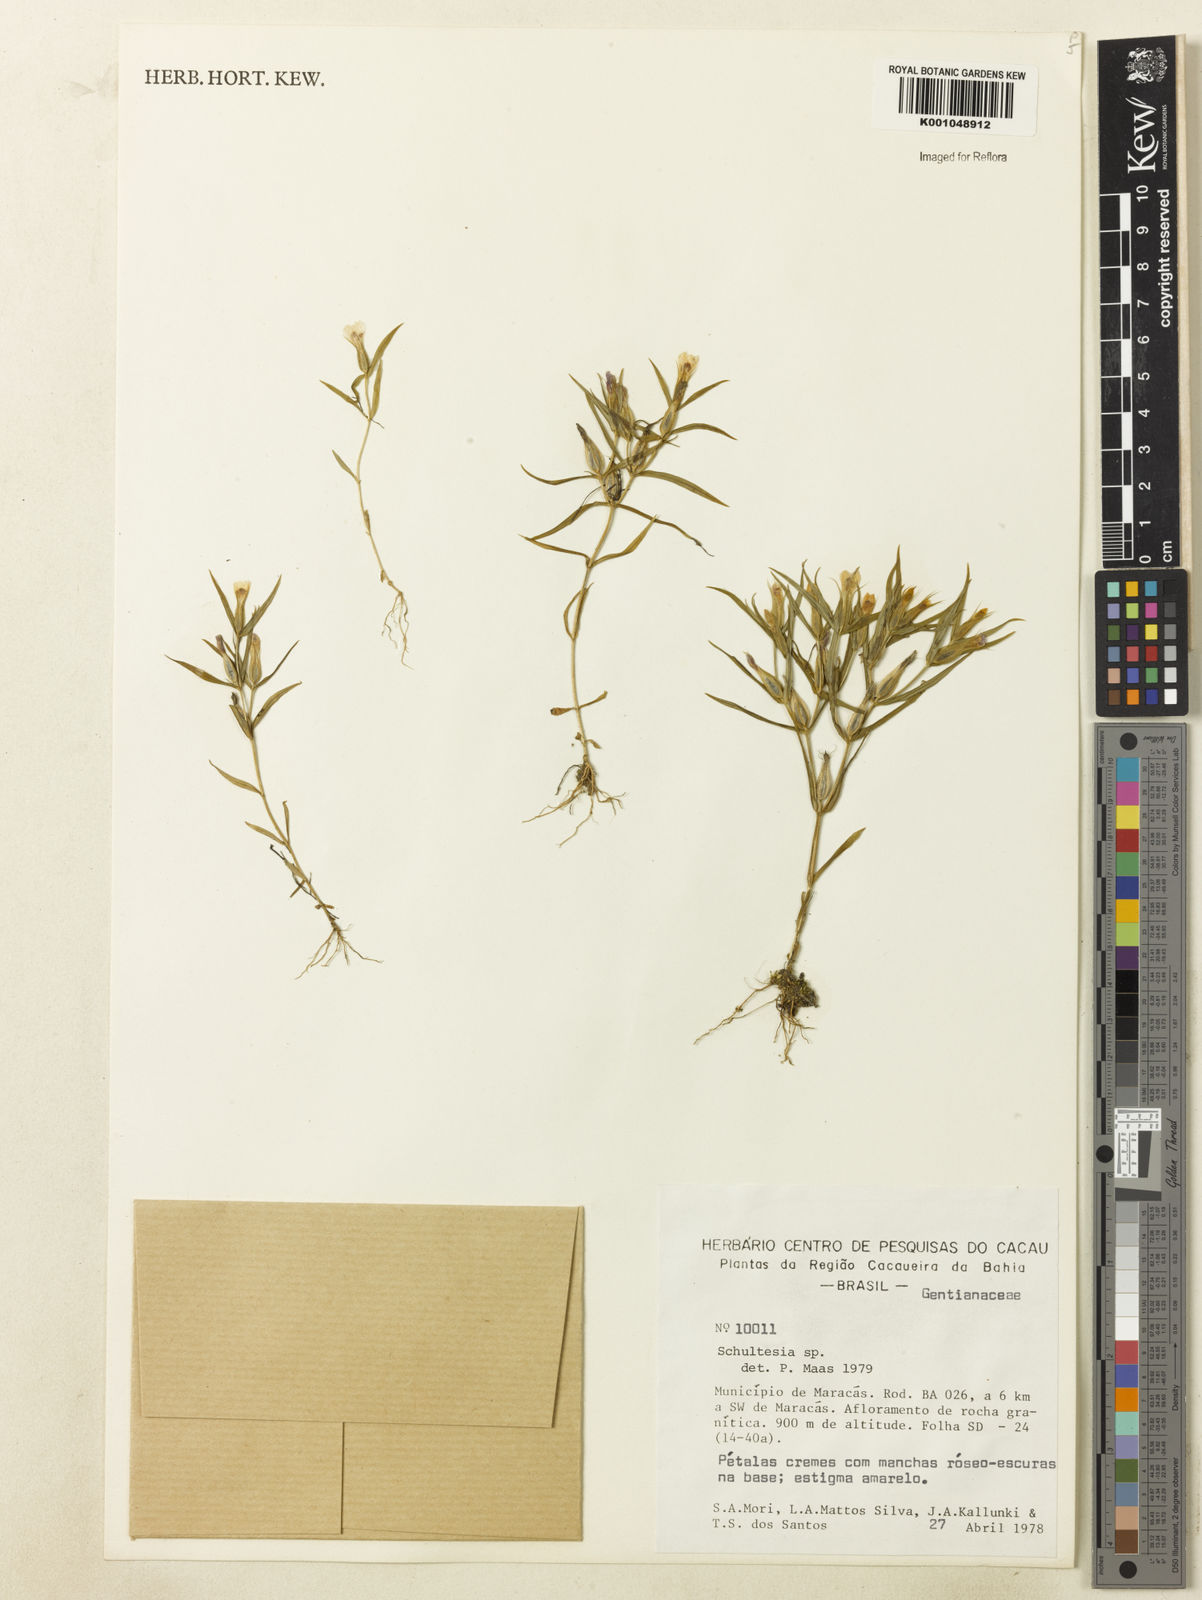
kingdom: Plantae
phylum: Tracheophyta
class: Magnoliopsida
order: Gentianales
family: Gentianaceae
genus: Schultesia
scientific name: Schultesia
